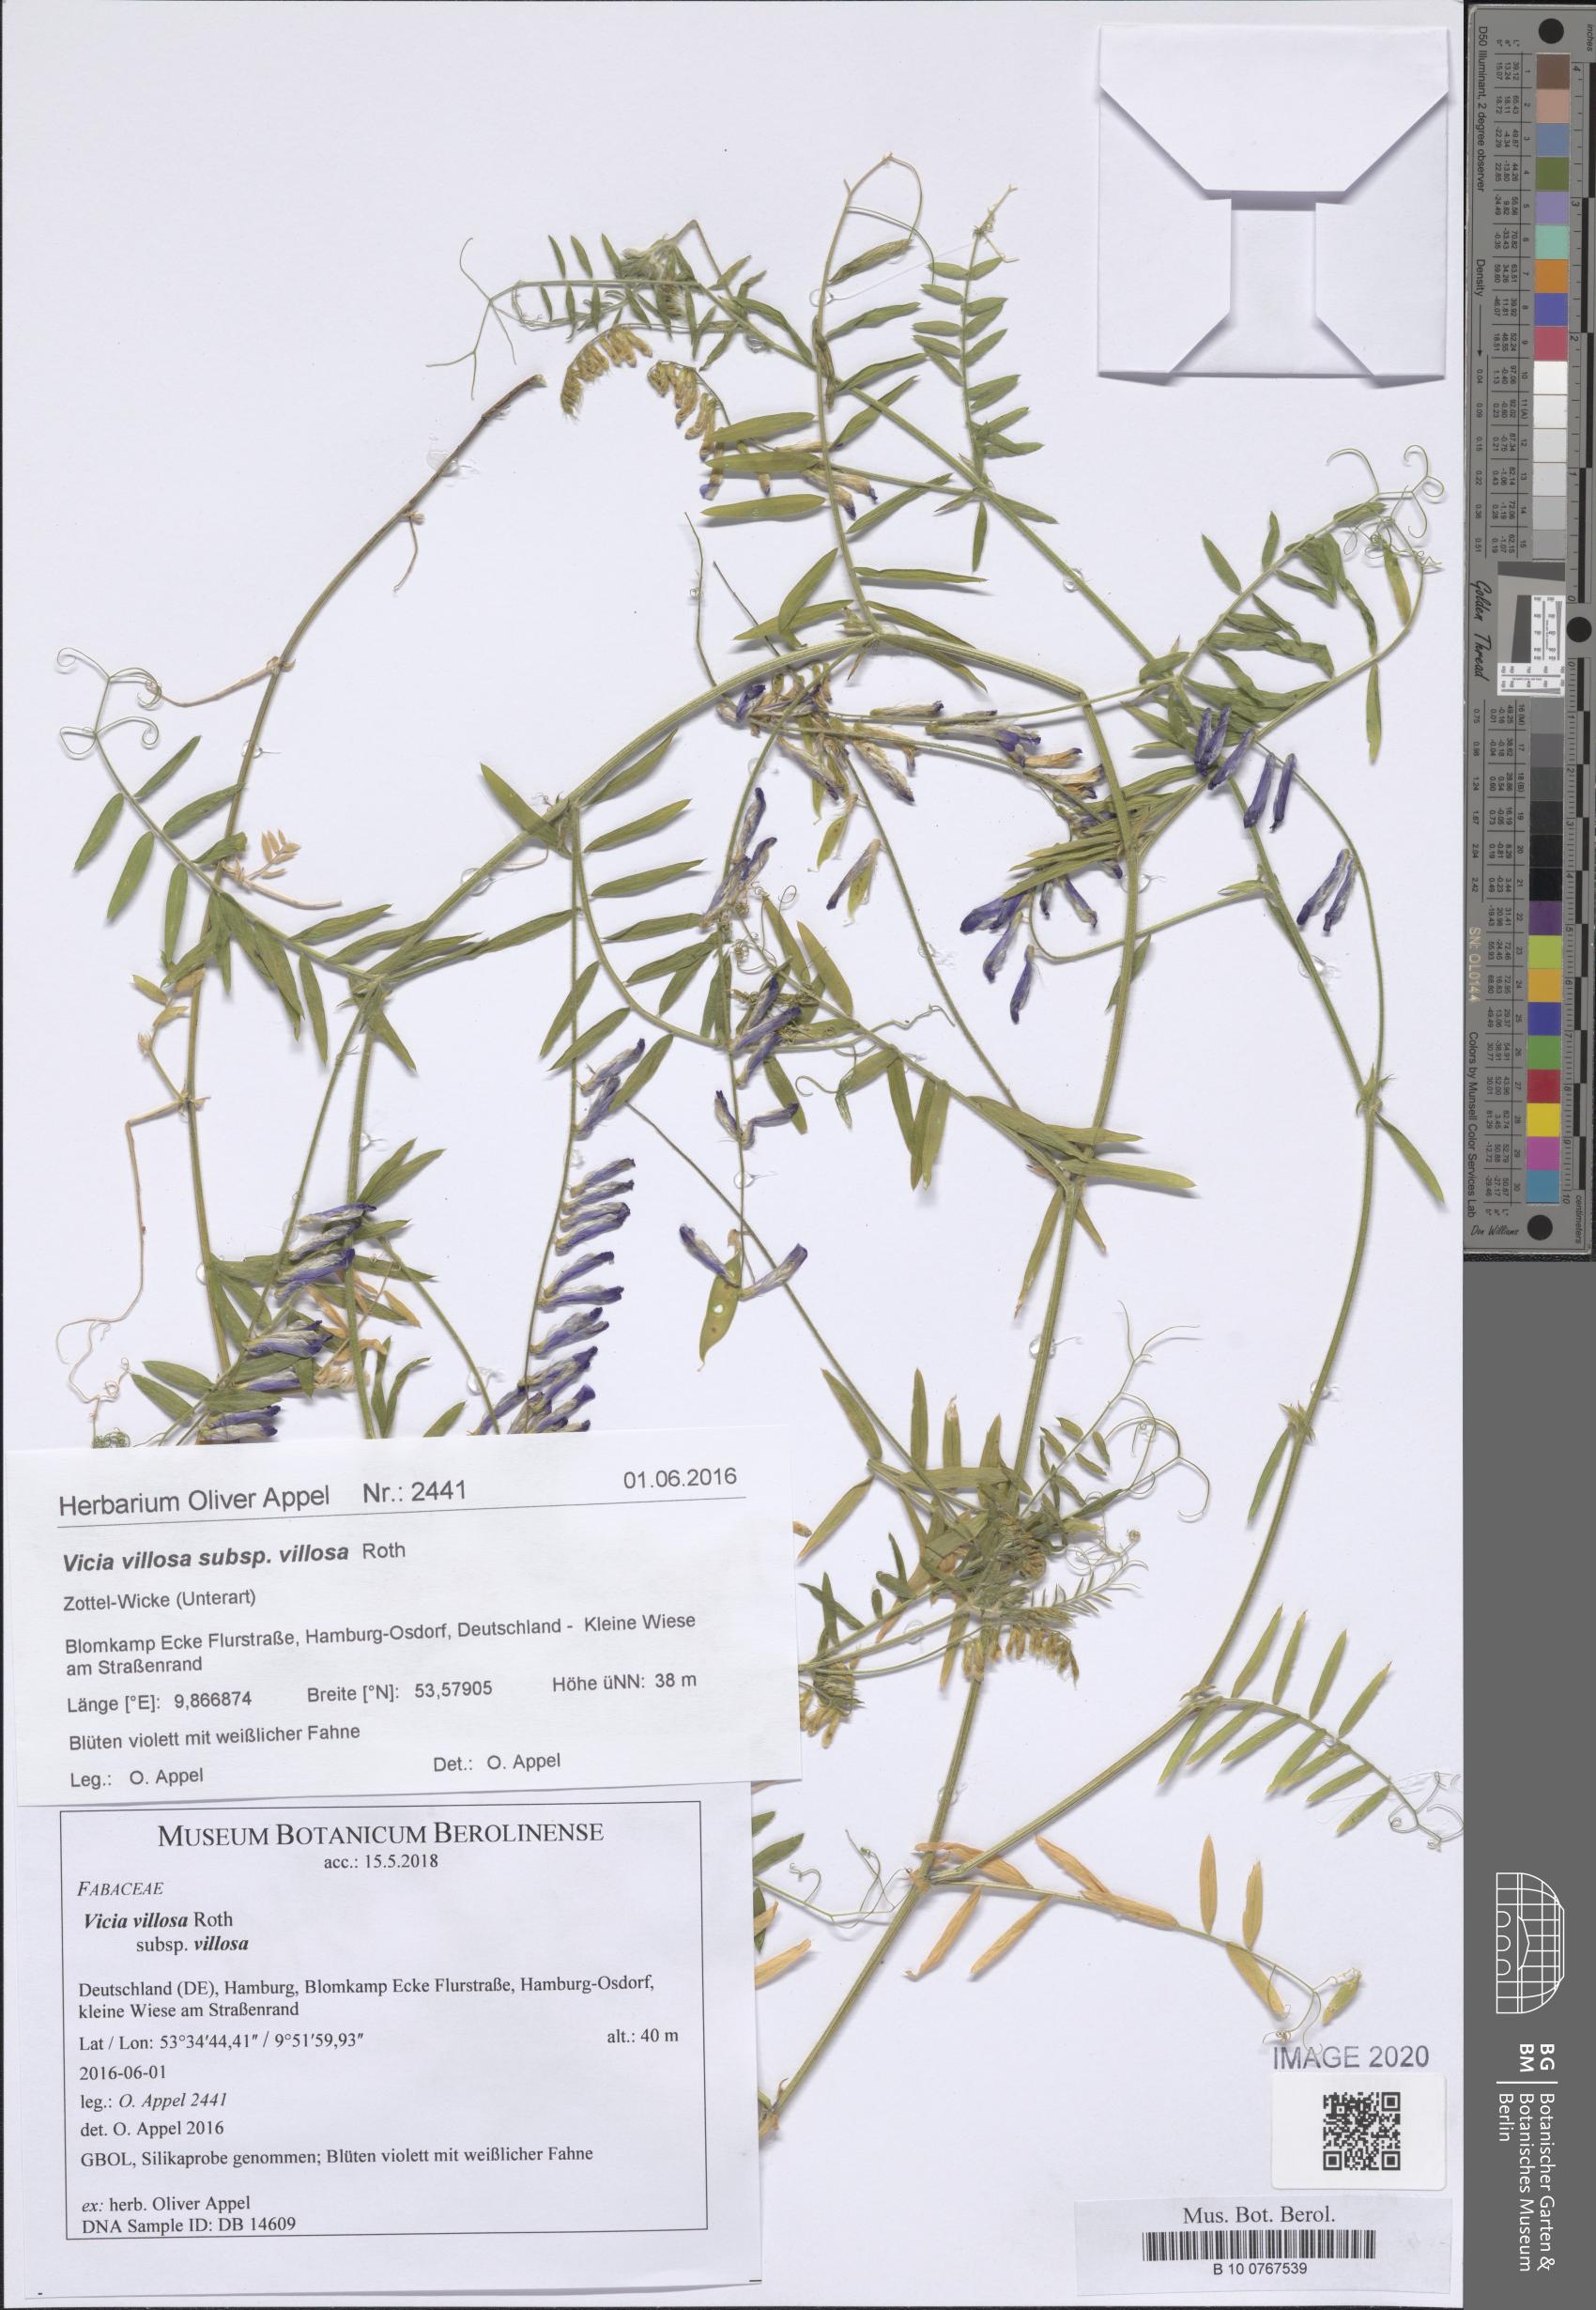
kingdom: Plantae
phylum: Tracheophyta
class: Magnoliopsida
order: Fabales
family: Fabaceae
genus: Vicia
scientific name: Vicia villosa
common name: Fodder vetch
